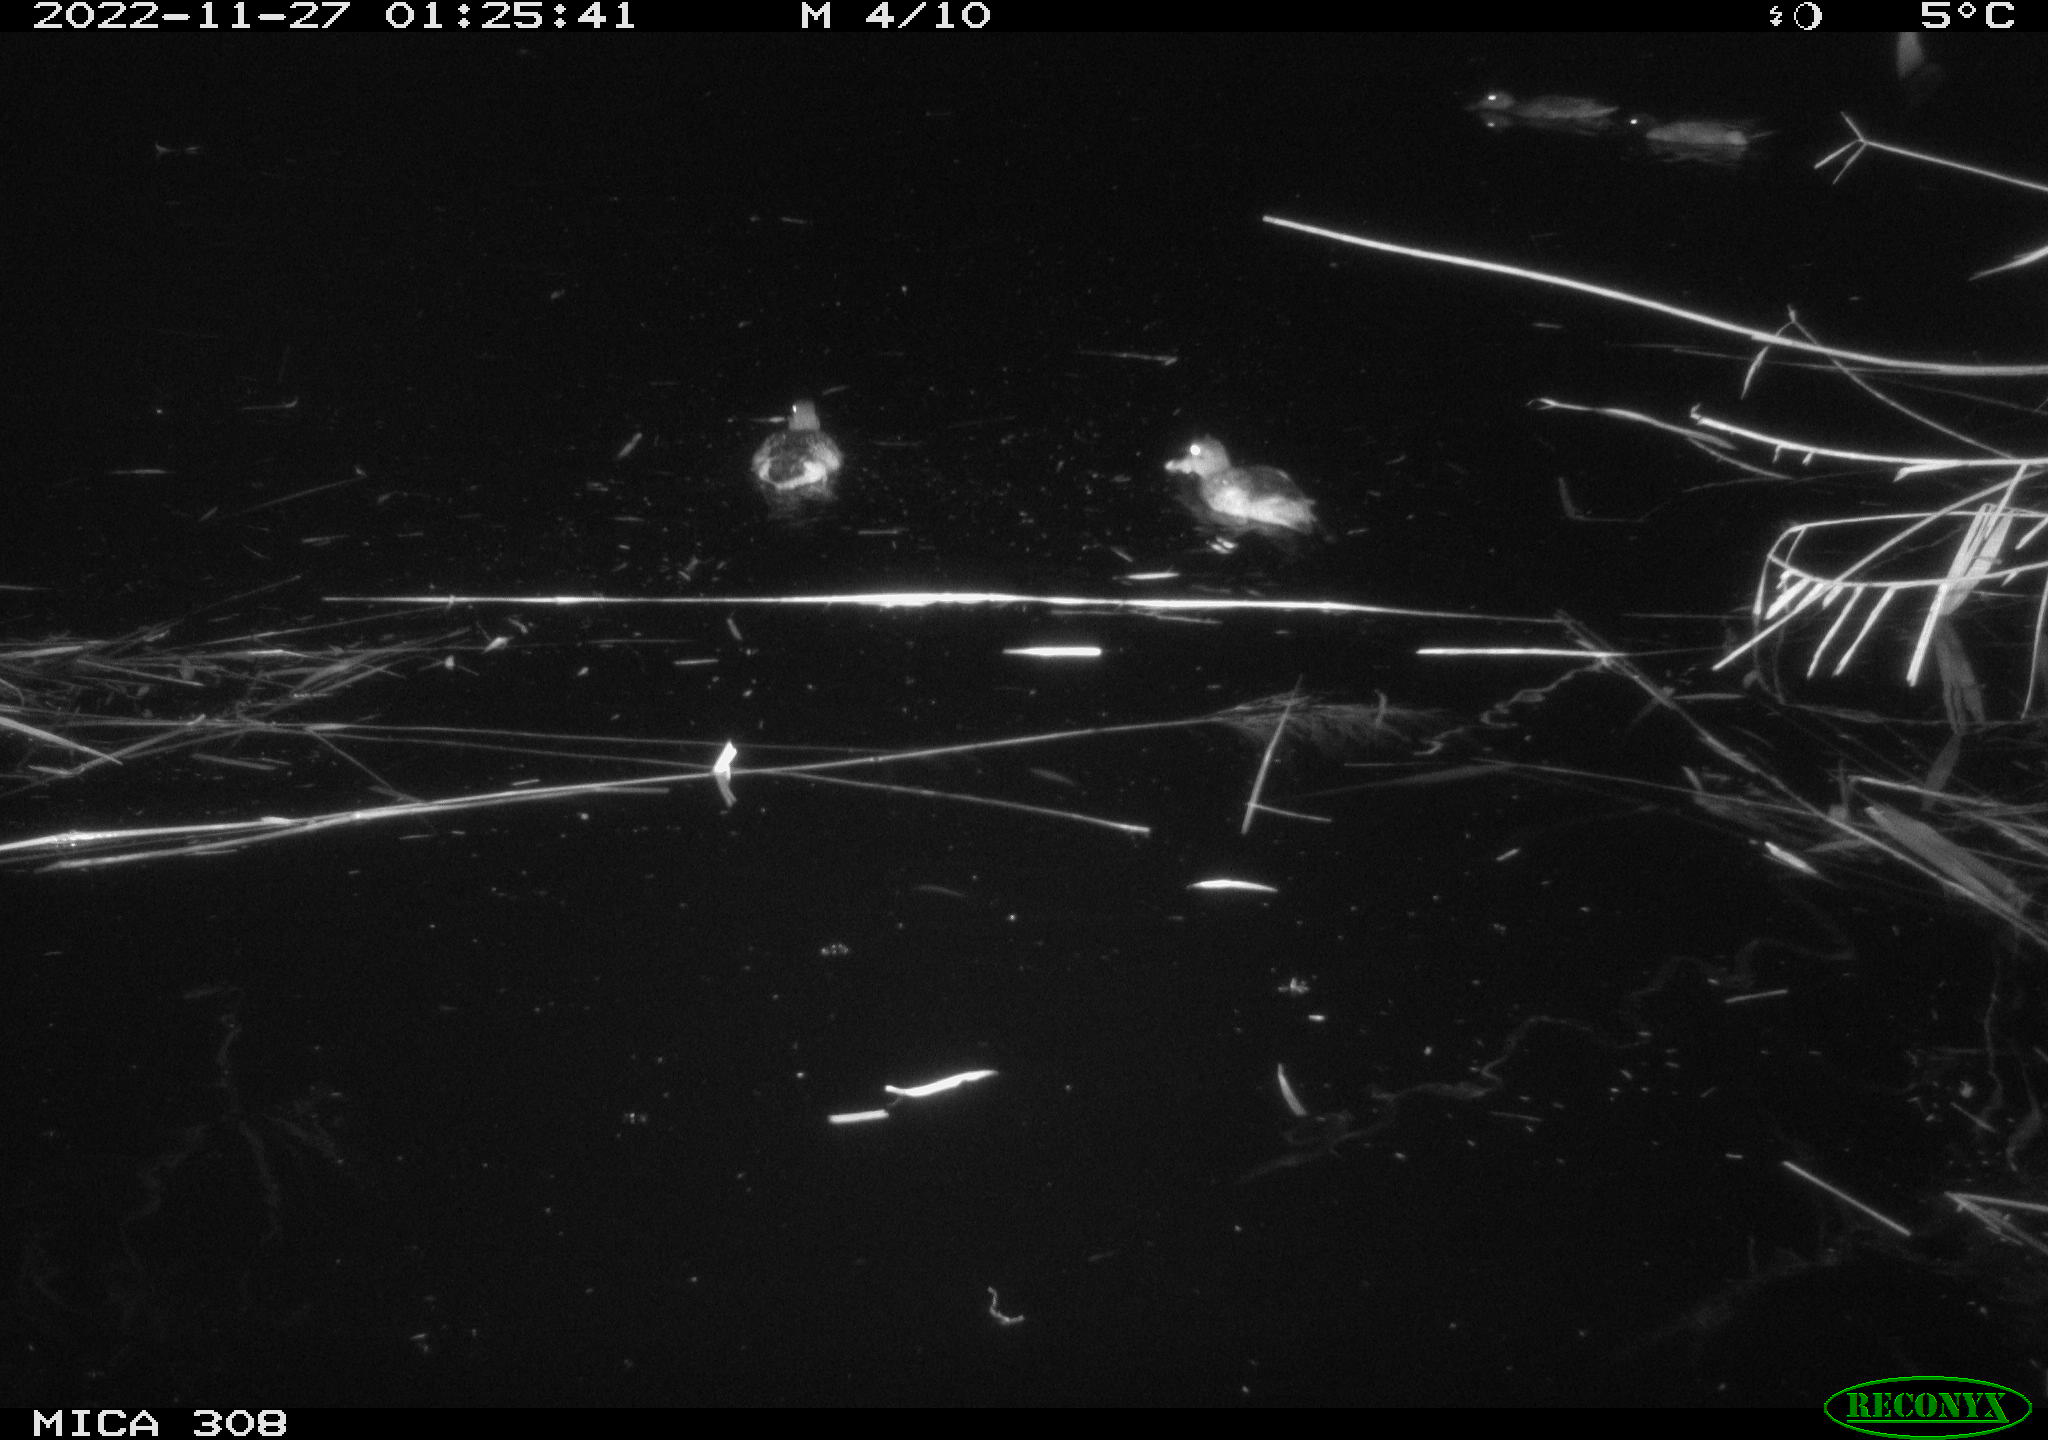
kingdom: Animalia
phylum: Chordata
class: Aves
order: Anseriformes
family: Anatidae
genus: Anas
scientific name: Anas
